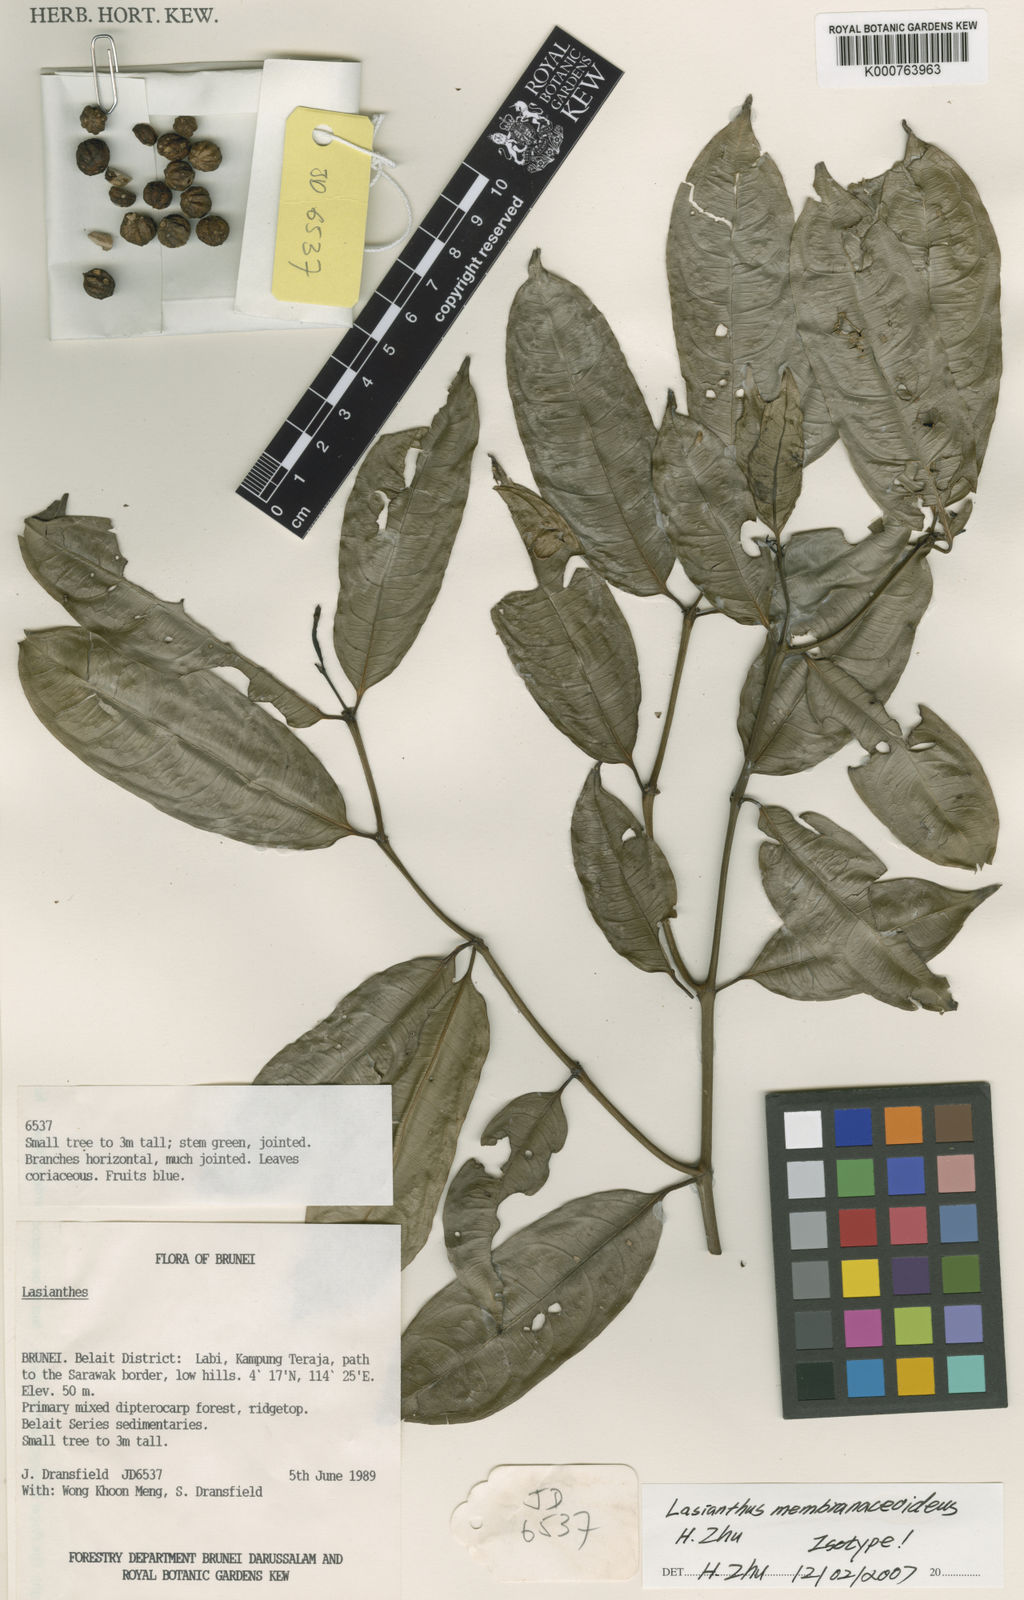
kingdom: Plantae
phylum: Tracheophyta
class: Magnoliopsida
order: Gentianales
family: Rubiaceae
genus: Lasianthus
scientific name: Lasianthus membranaceoideus
